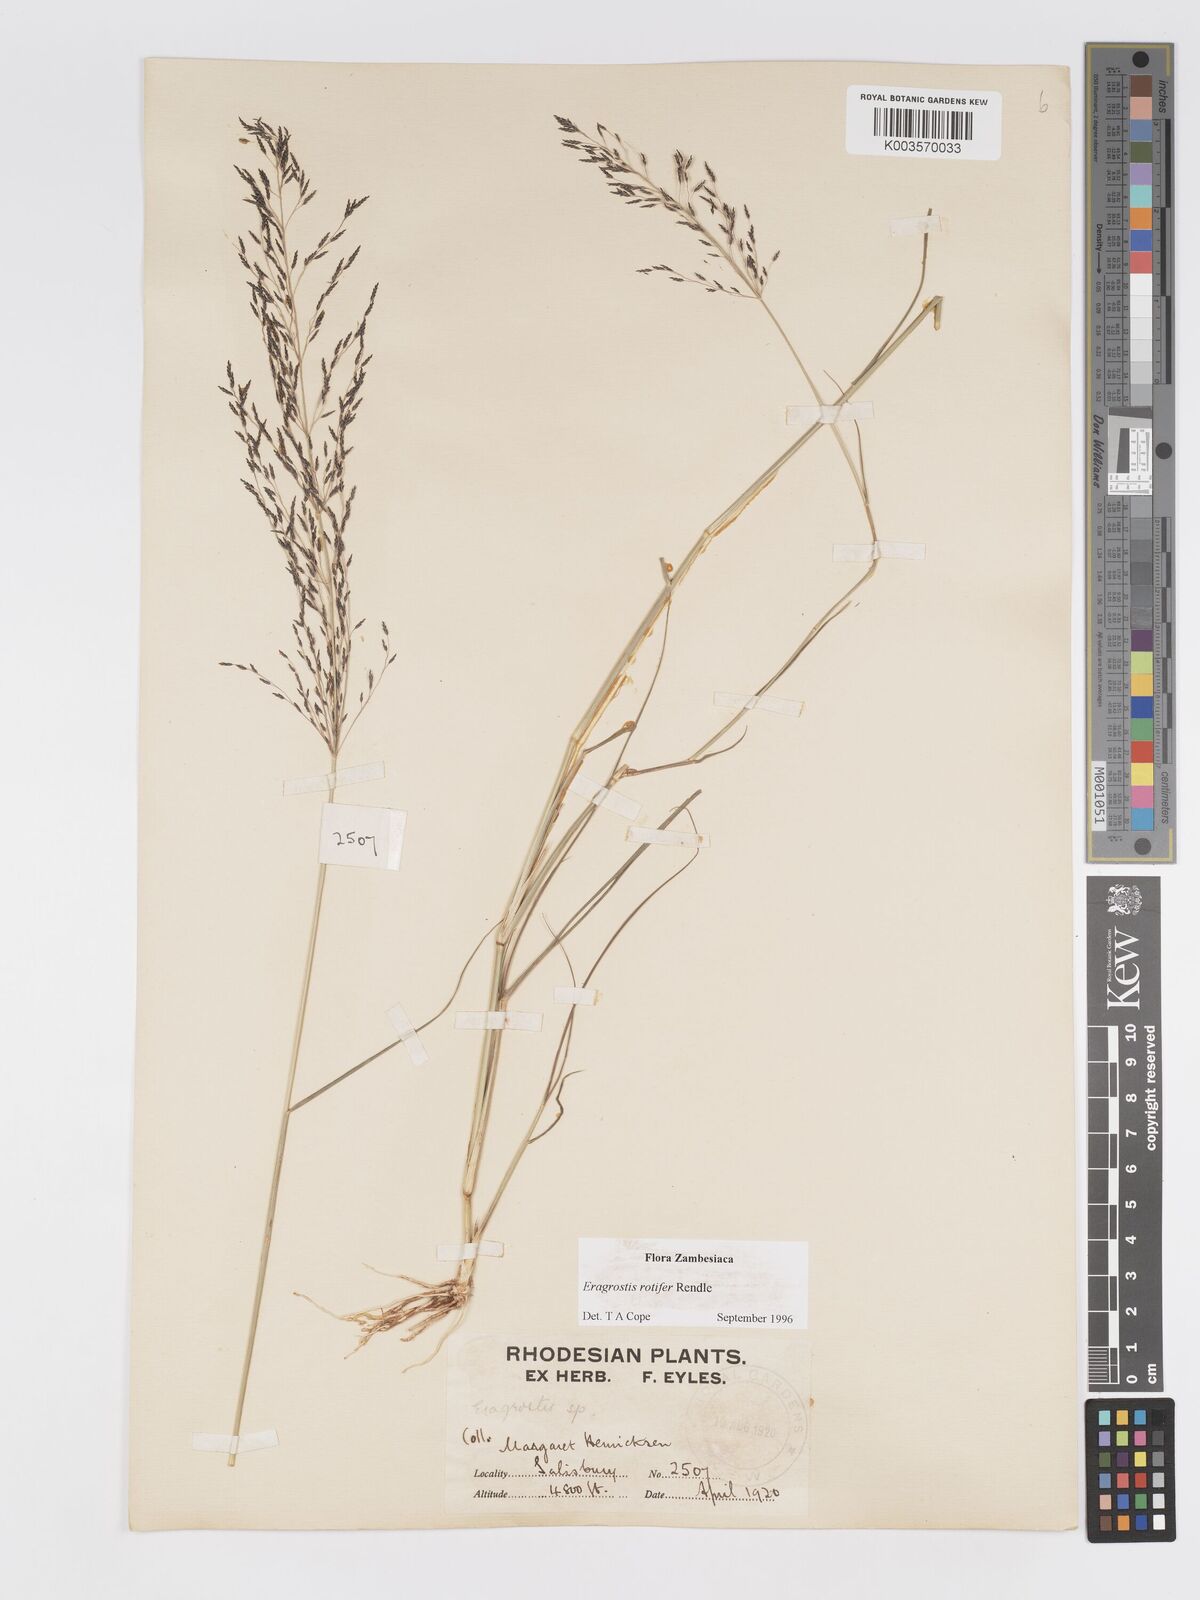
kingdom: Plantae
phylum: Tracheophyta
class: Liliopsida
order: Poales
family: Poaceae
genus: Eragrostis
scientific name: Eragrostis rotifer
